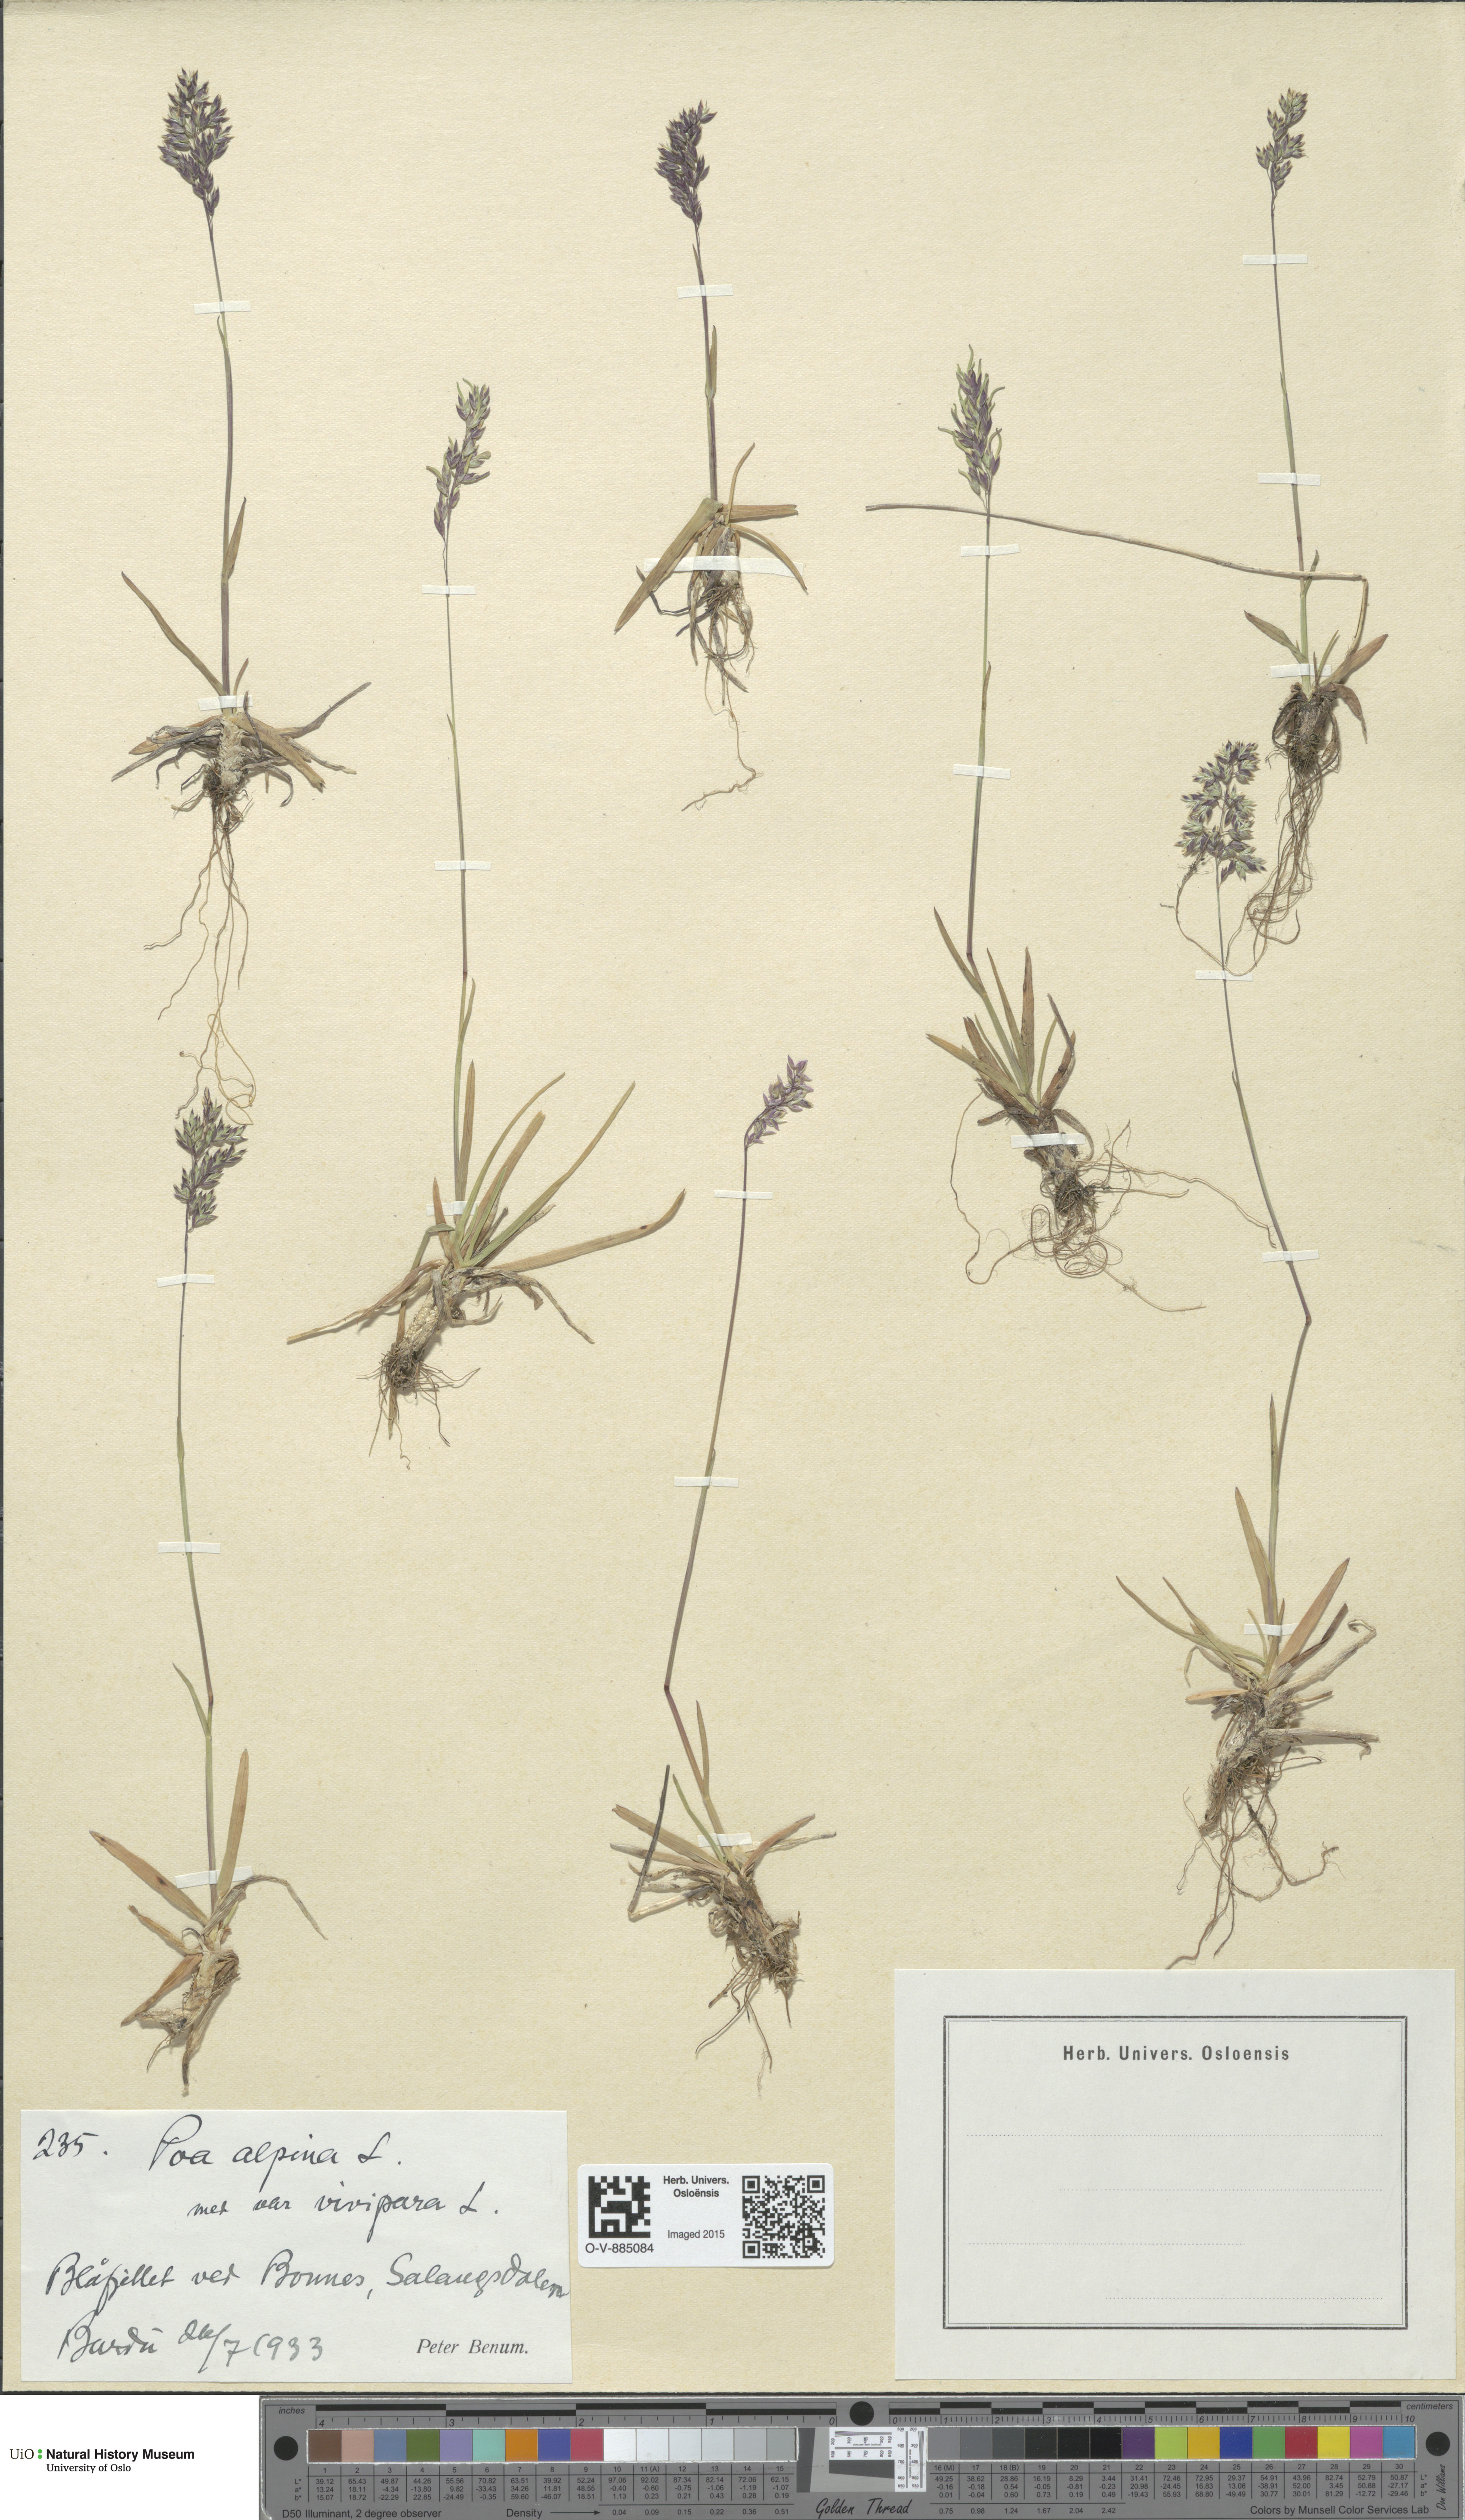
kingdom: Plantae
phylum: Tracheophyta
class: Liliopsida
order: Poales
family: Poaceae
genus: Poa
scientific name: Poa alpina
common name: Alpine bluegrass
